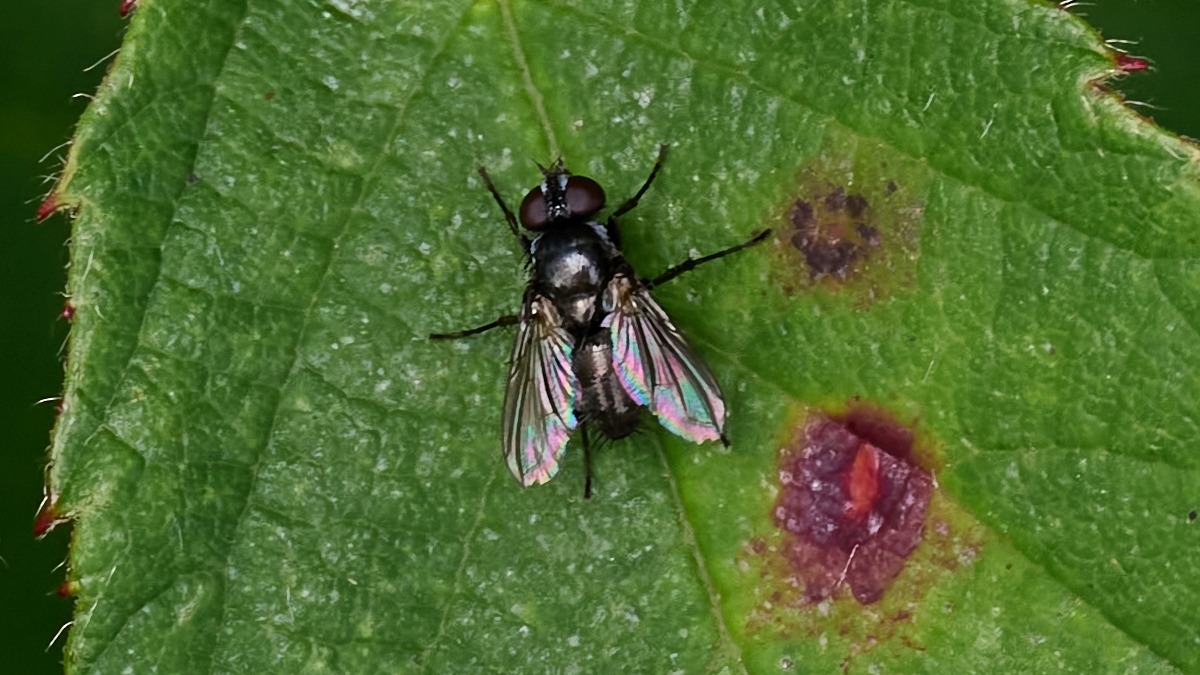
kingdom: Animalia
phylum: Arthropoda
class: Insecta
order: Diptera
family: Calliphoridae
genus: Rhinophora
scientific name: Rhinophora lepida
